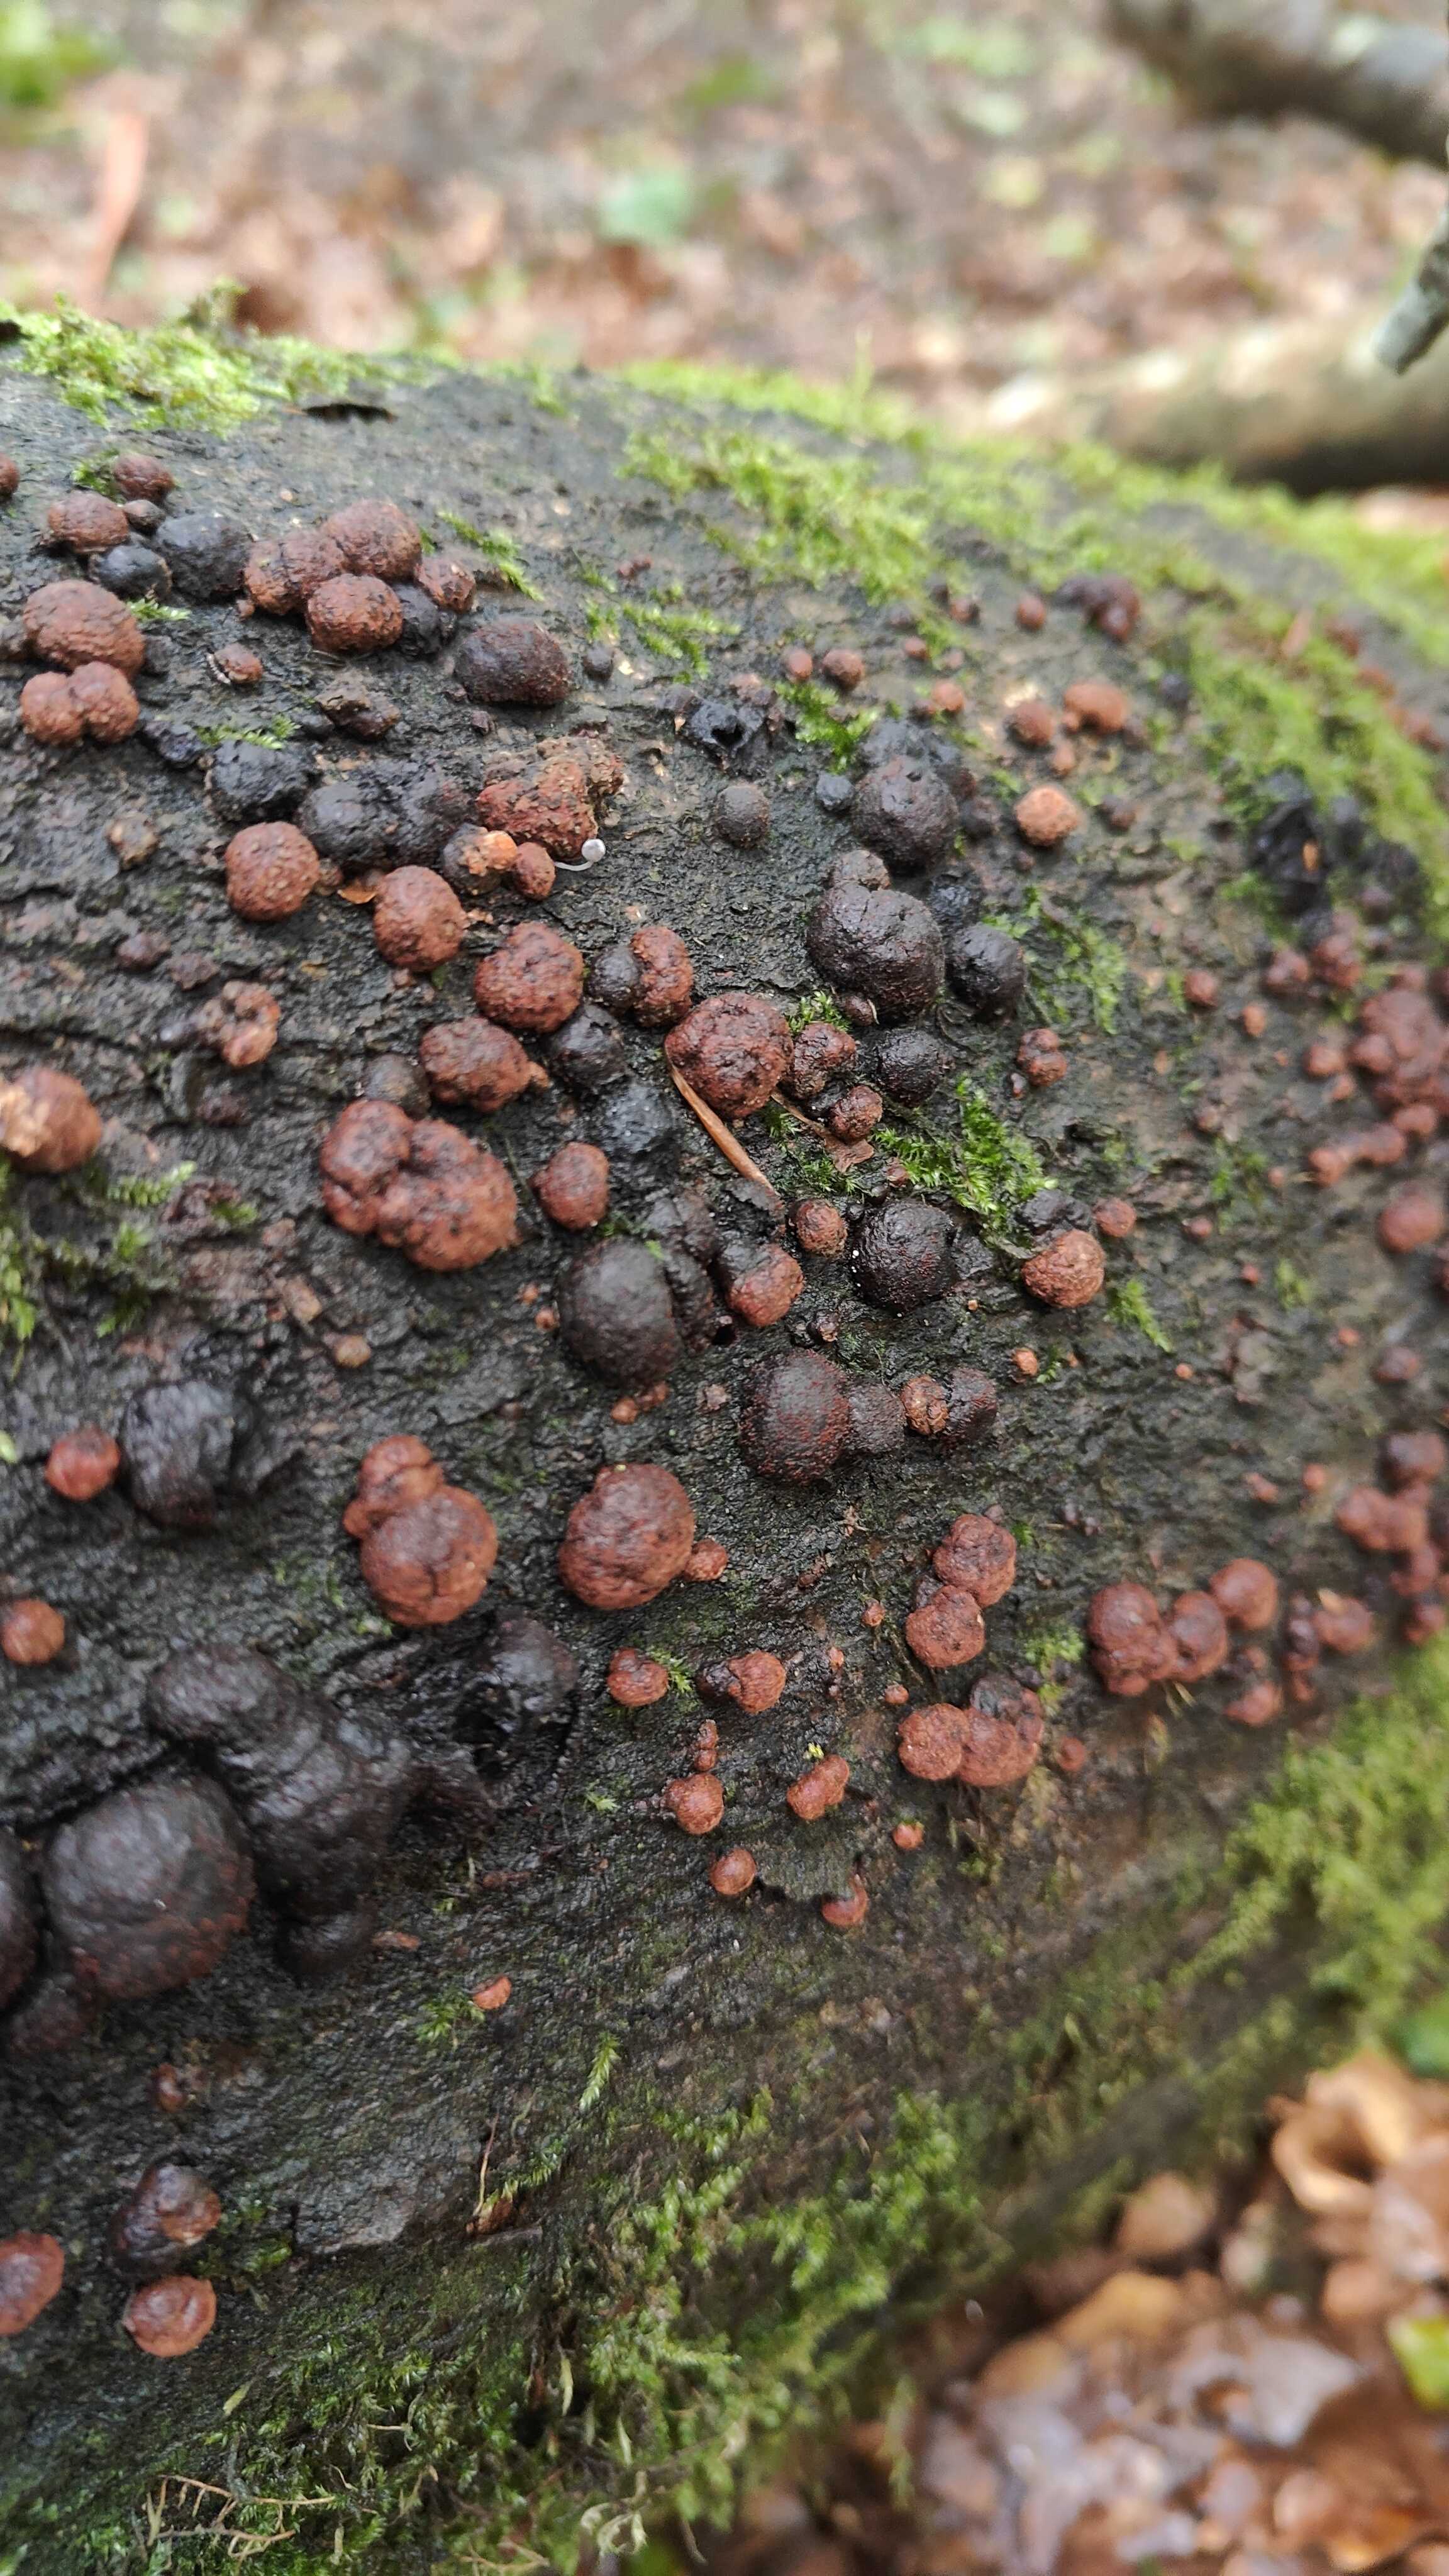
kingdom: Fungi
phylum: Ascomycota
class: Sordariomycetes
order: Xylariales
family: Hypoxylaceae
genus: Hypoxylon
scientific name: Hypoxylon fragiforme
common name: kuljordbær
